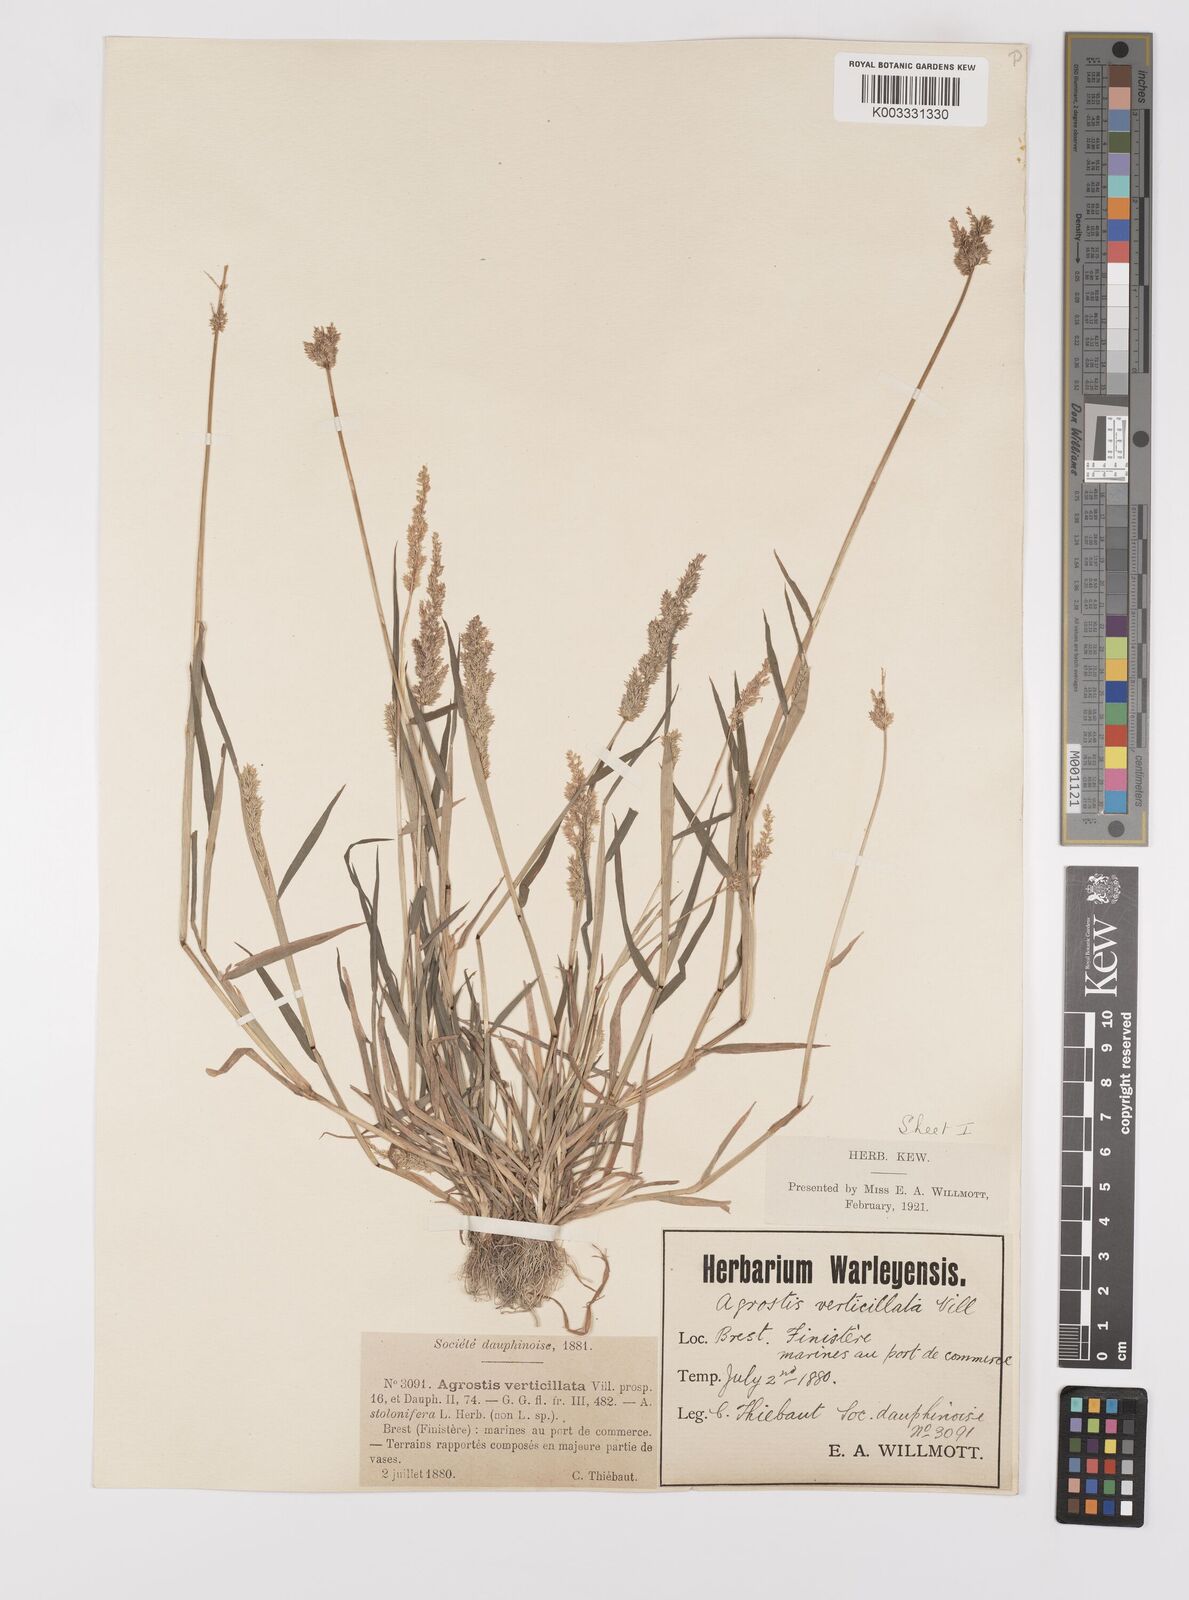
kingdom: Plantae
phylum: Tracheophyta
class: Liliopsida
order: Poales
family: Poaceae
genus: Polypogon
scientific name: Polypogon viridis
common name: Water bent
